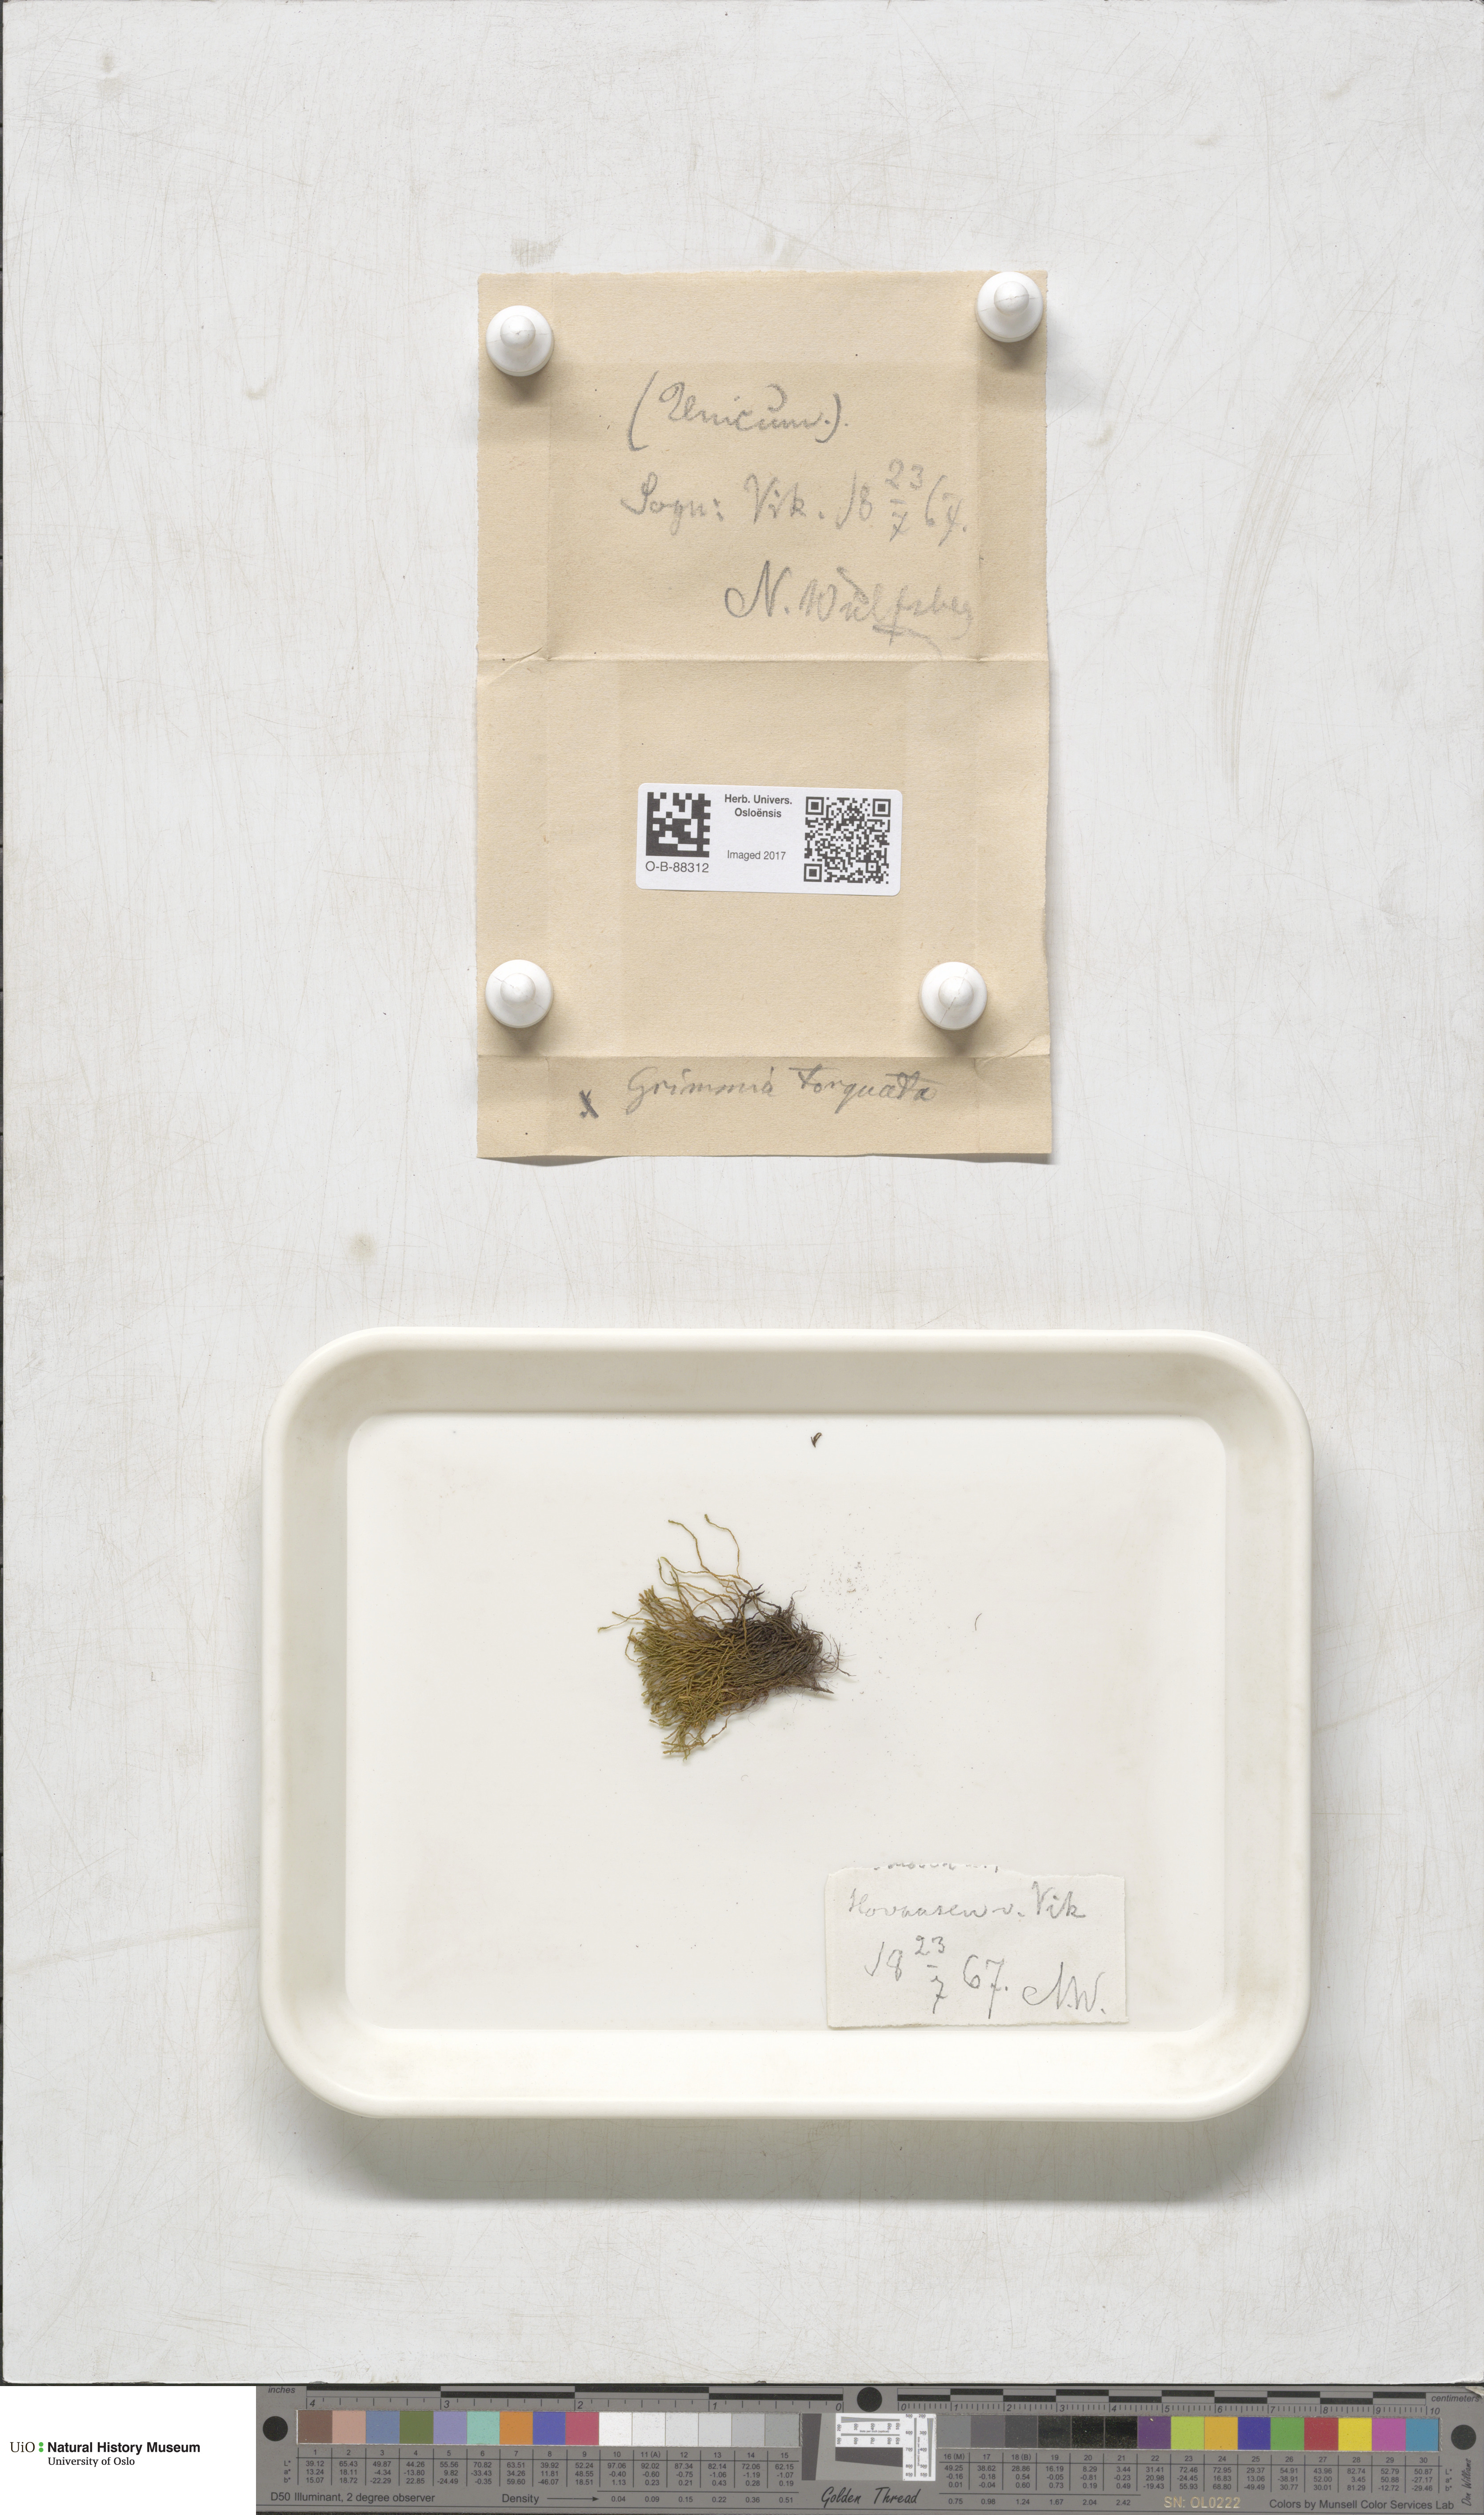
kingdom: Plantae
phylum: Bryophyta
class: Bryopsida
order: Grimmiales
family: Grimmiaceae
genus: Grimmia
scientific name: Grimmia torquata
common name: Twisted grimmia
